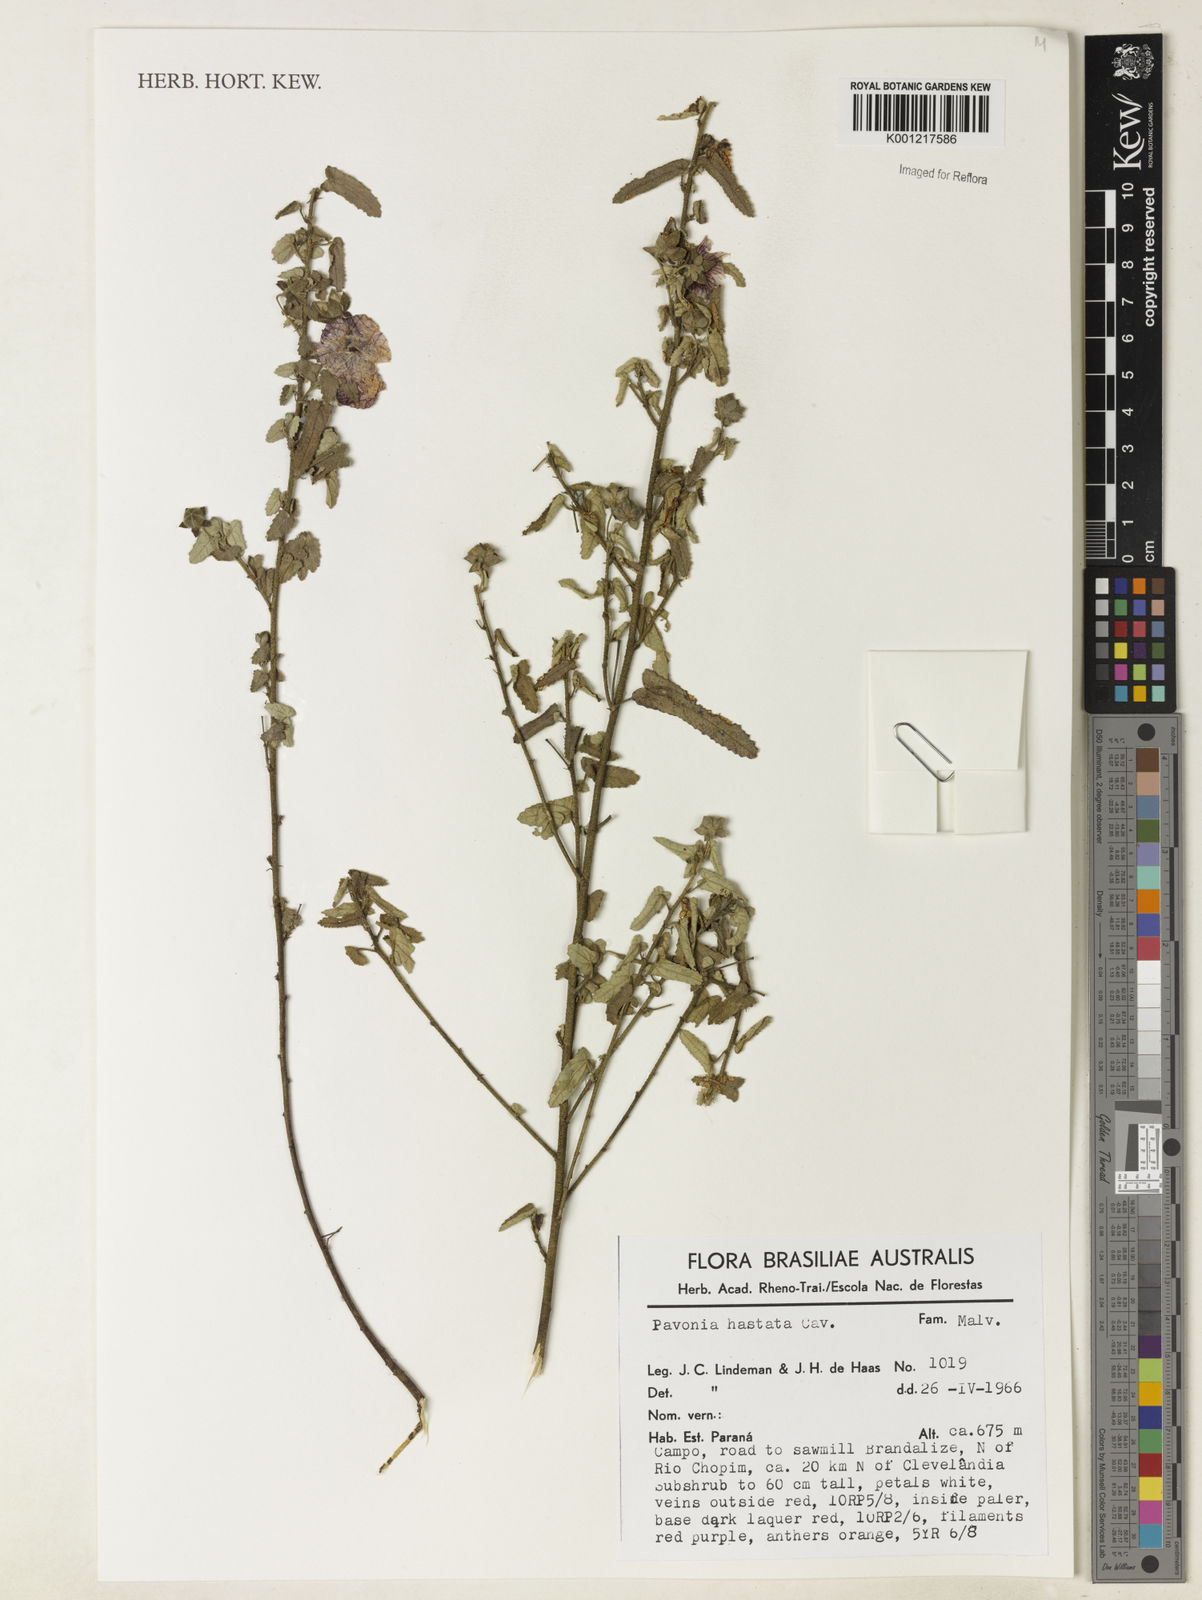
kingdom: Plantae
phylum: Tracheophyta
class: Magnoliopsida
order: Malvales
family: Malvaceae
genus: Pavonia
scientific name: Pavonia hastata
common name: Spearleaf swampmallow
